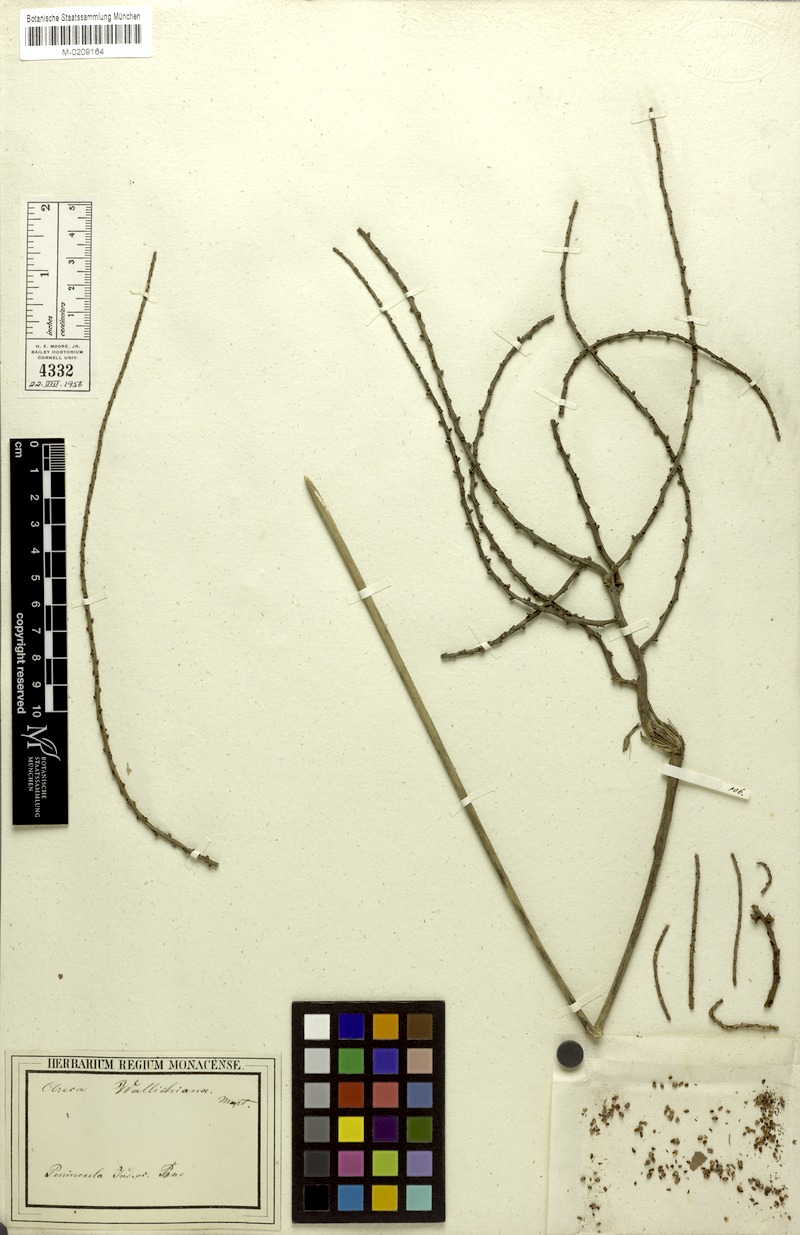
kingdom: Plantae
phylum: Tracheophyta
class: Liliopsida
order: Arecales
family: Arecaceae
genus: Iguanura
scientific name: Iguanura wallichiana
